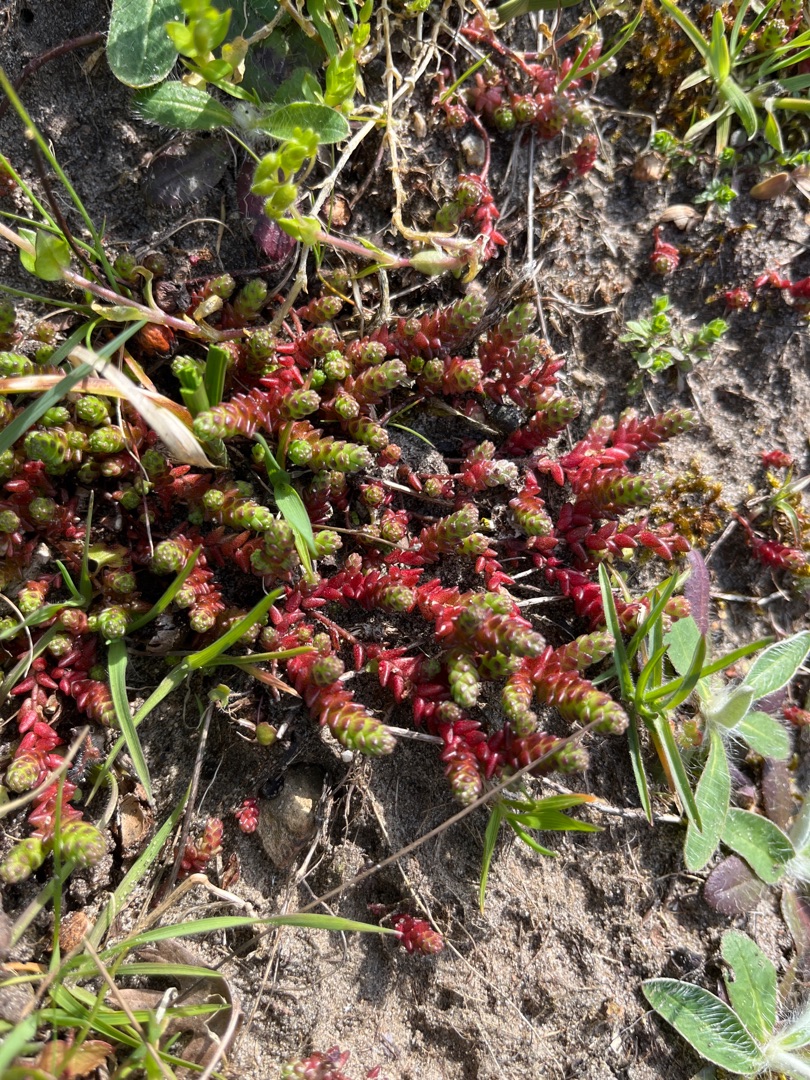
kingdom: Plantae
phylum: Tracheophyta
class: Magnoliopsida
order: Saxifragales
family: Crassulaceae
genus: Sedum
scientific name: Sedum acre
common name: Bidende stenurt
